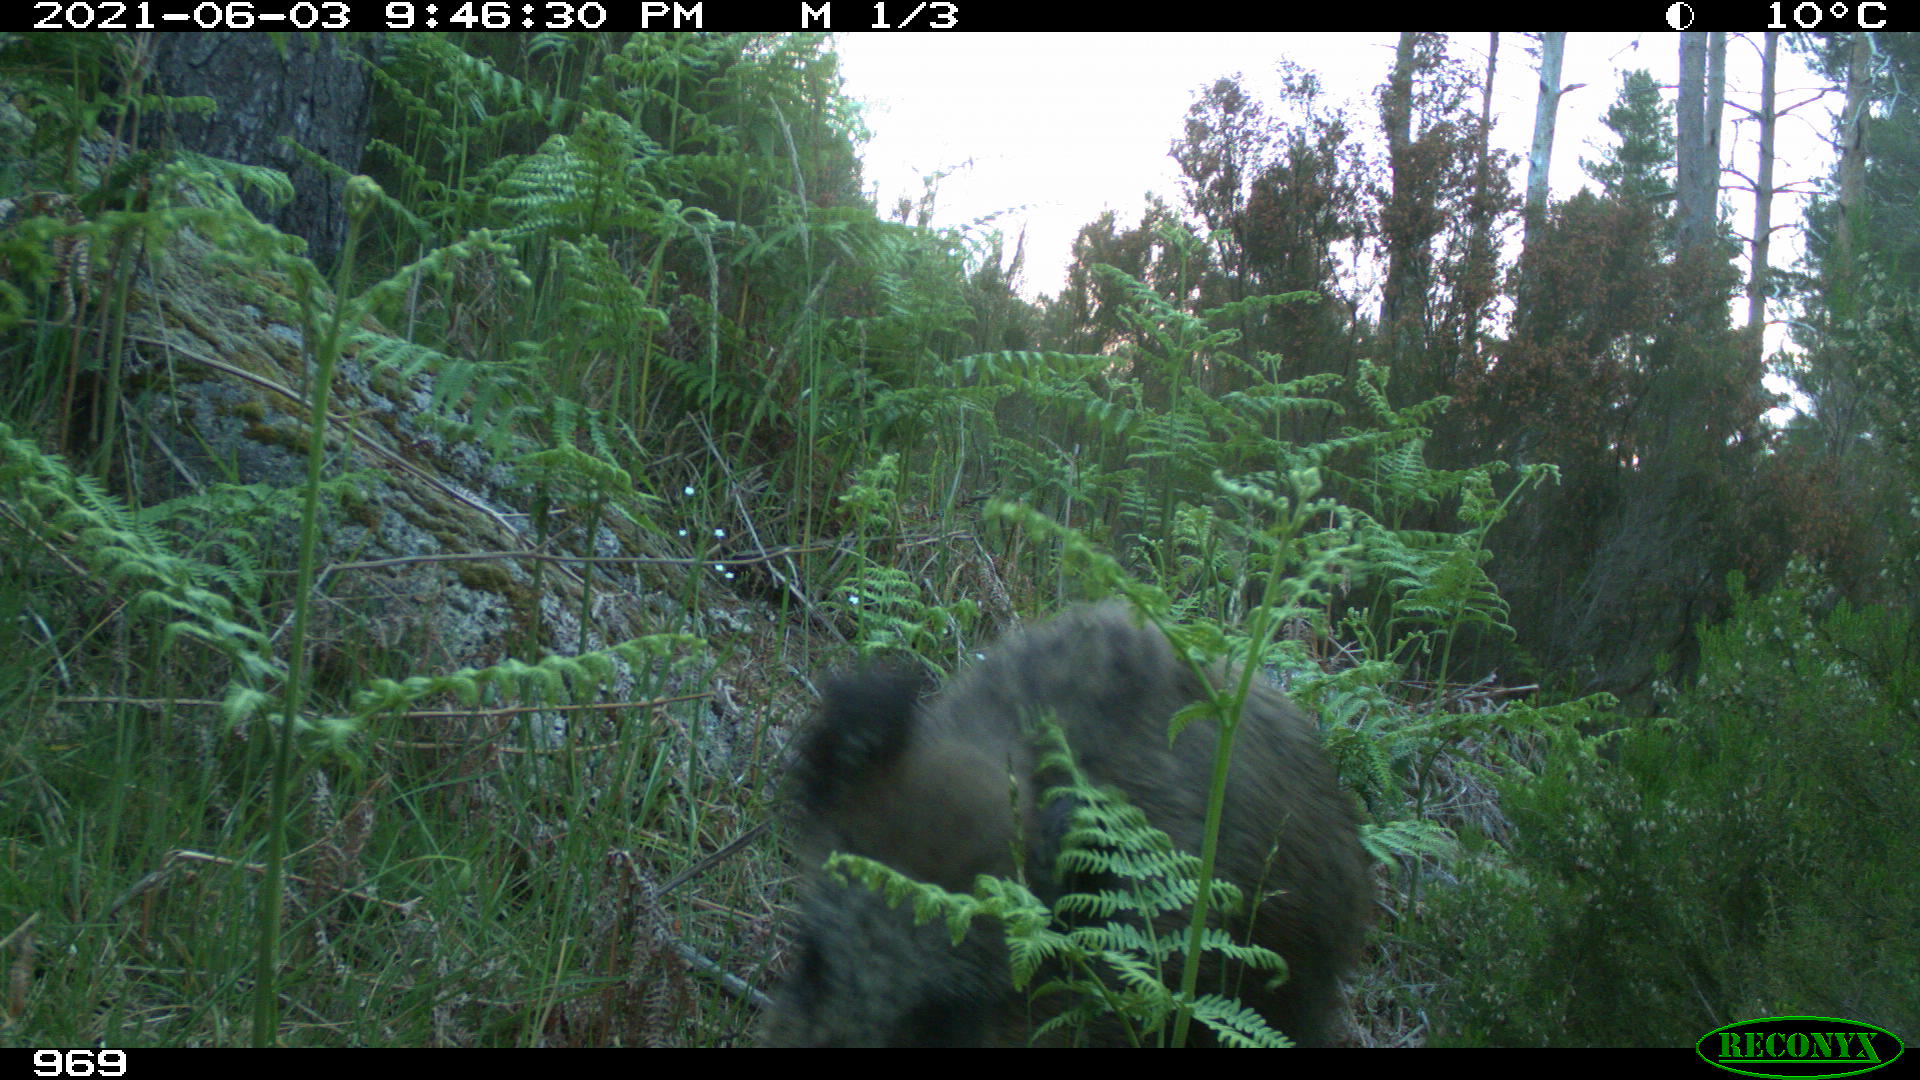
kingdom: Animalia
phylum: Chordata
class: Mammalia
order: Artiodactyla
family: Suidae
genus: Sus
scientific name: Sus scrofa
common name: Wild boar
